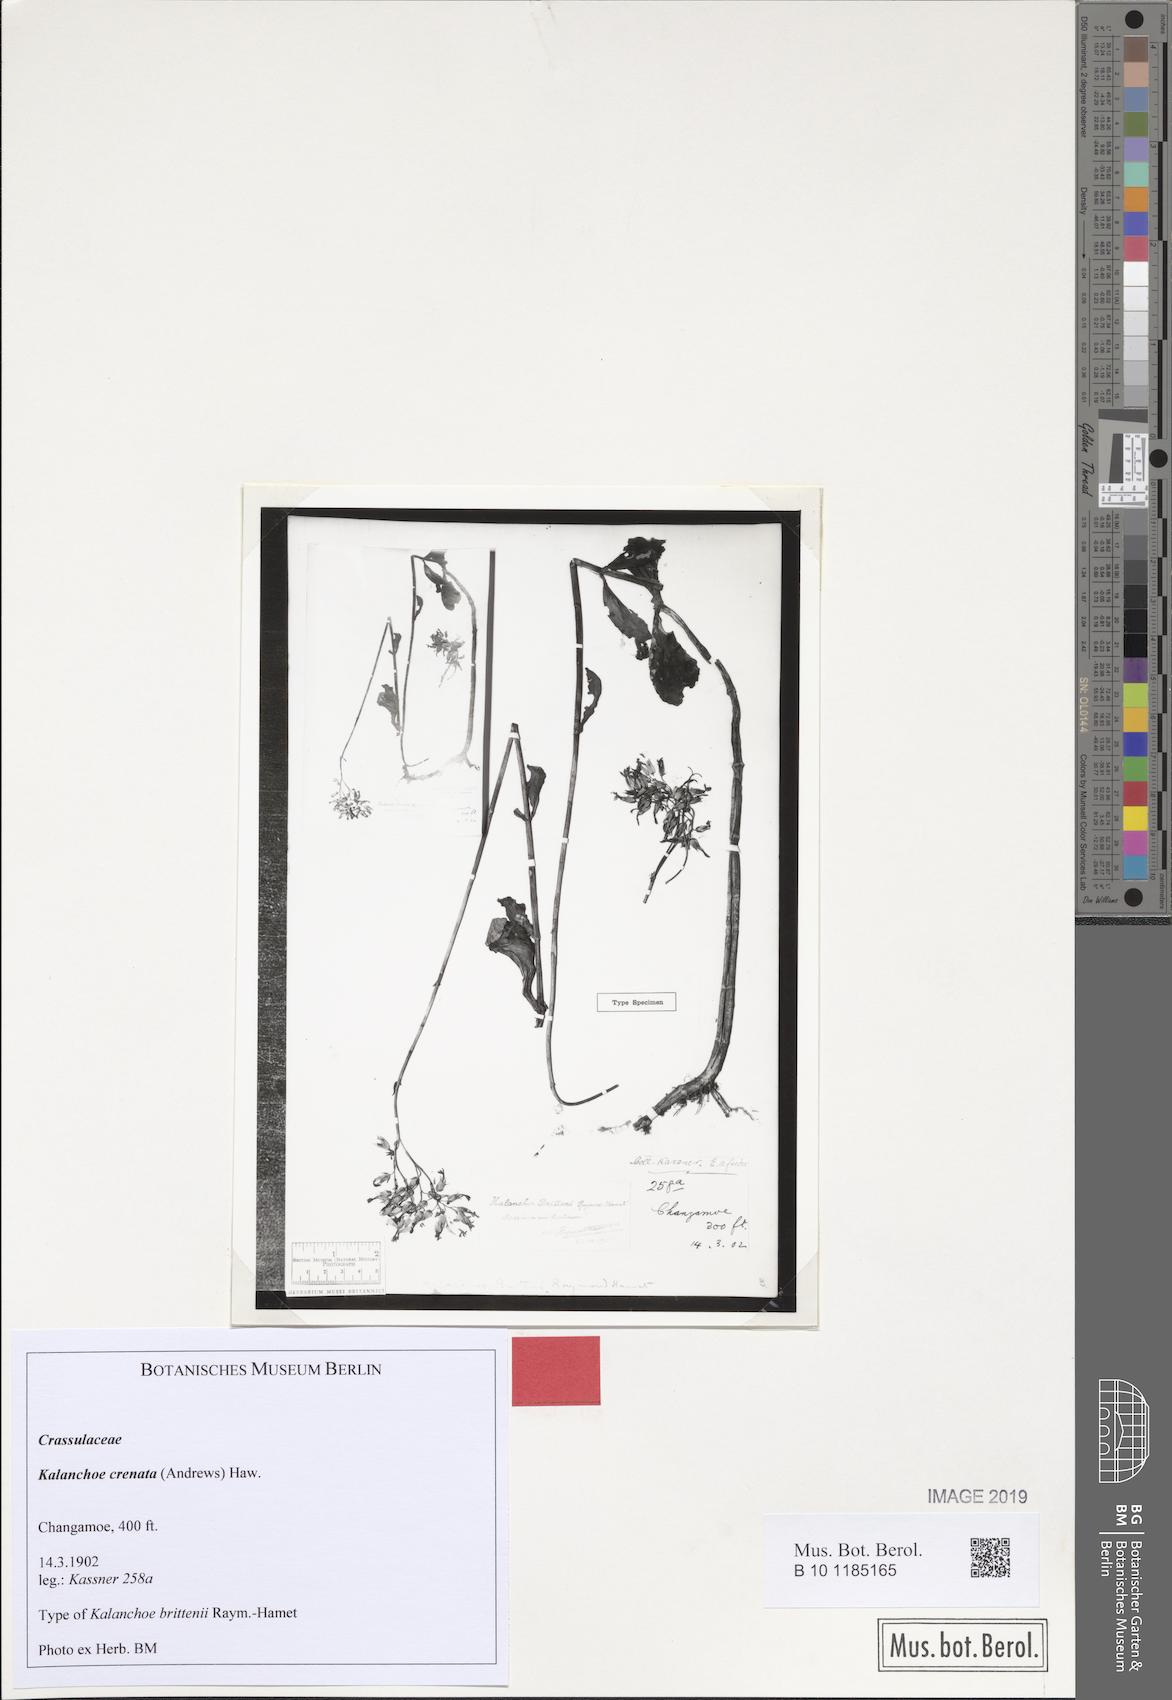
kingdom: Plantae
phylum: Tracheophyta
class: Magnoliopsida
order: Saxifragales
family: Crassulaceae
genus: Kalanchoe
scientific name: Kalanchoe crenata
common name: Neverdie
